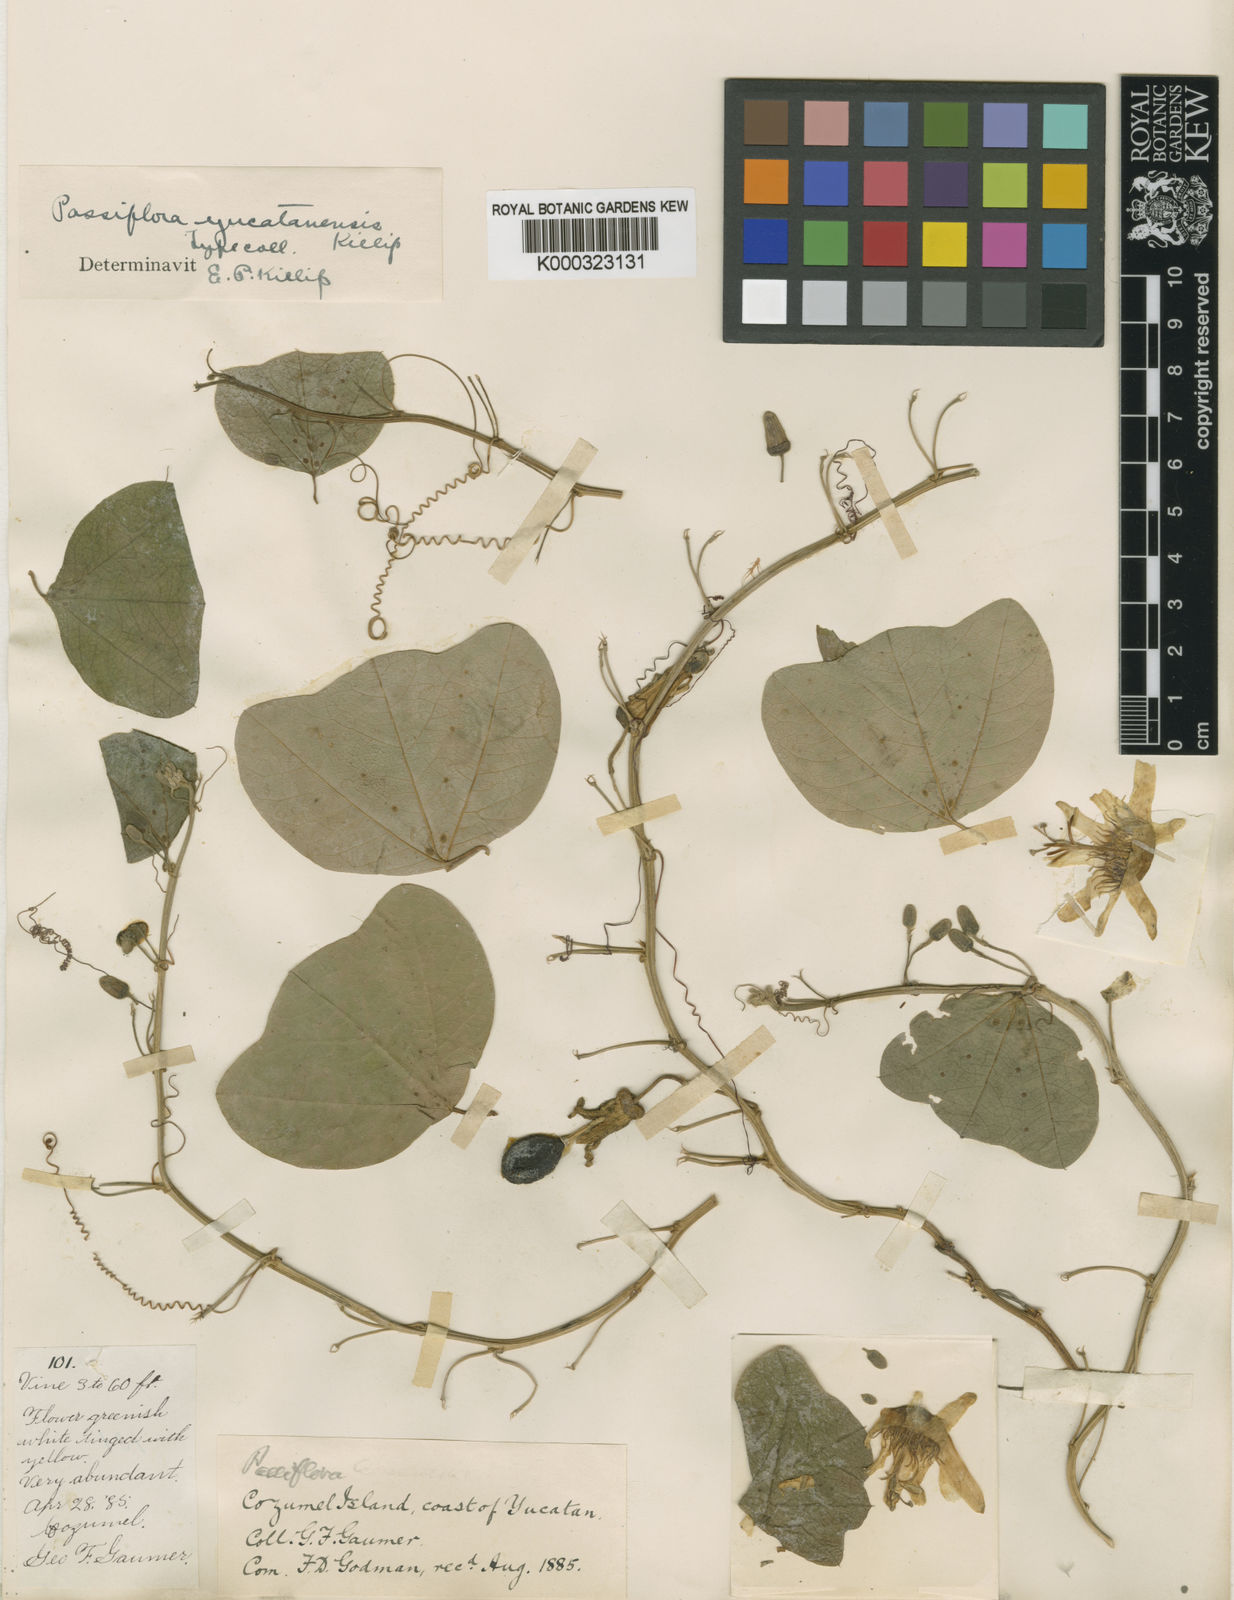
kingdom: Plantae
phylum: Tracheophyta
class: Magnoliopsida
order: Malpighiales
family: Passifloraceae
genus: Passiflora
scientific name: Passiflora yucatanensis
